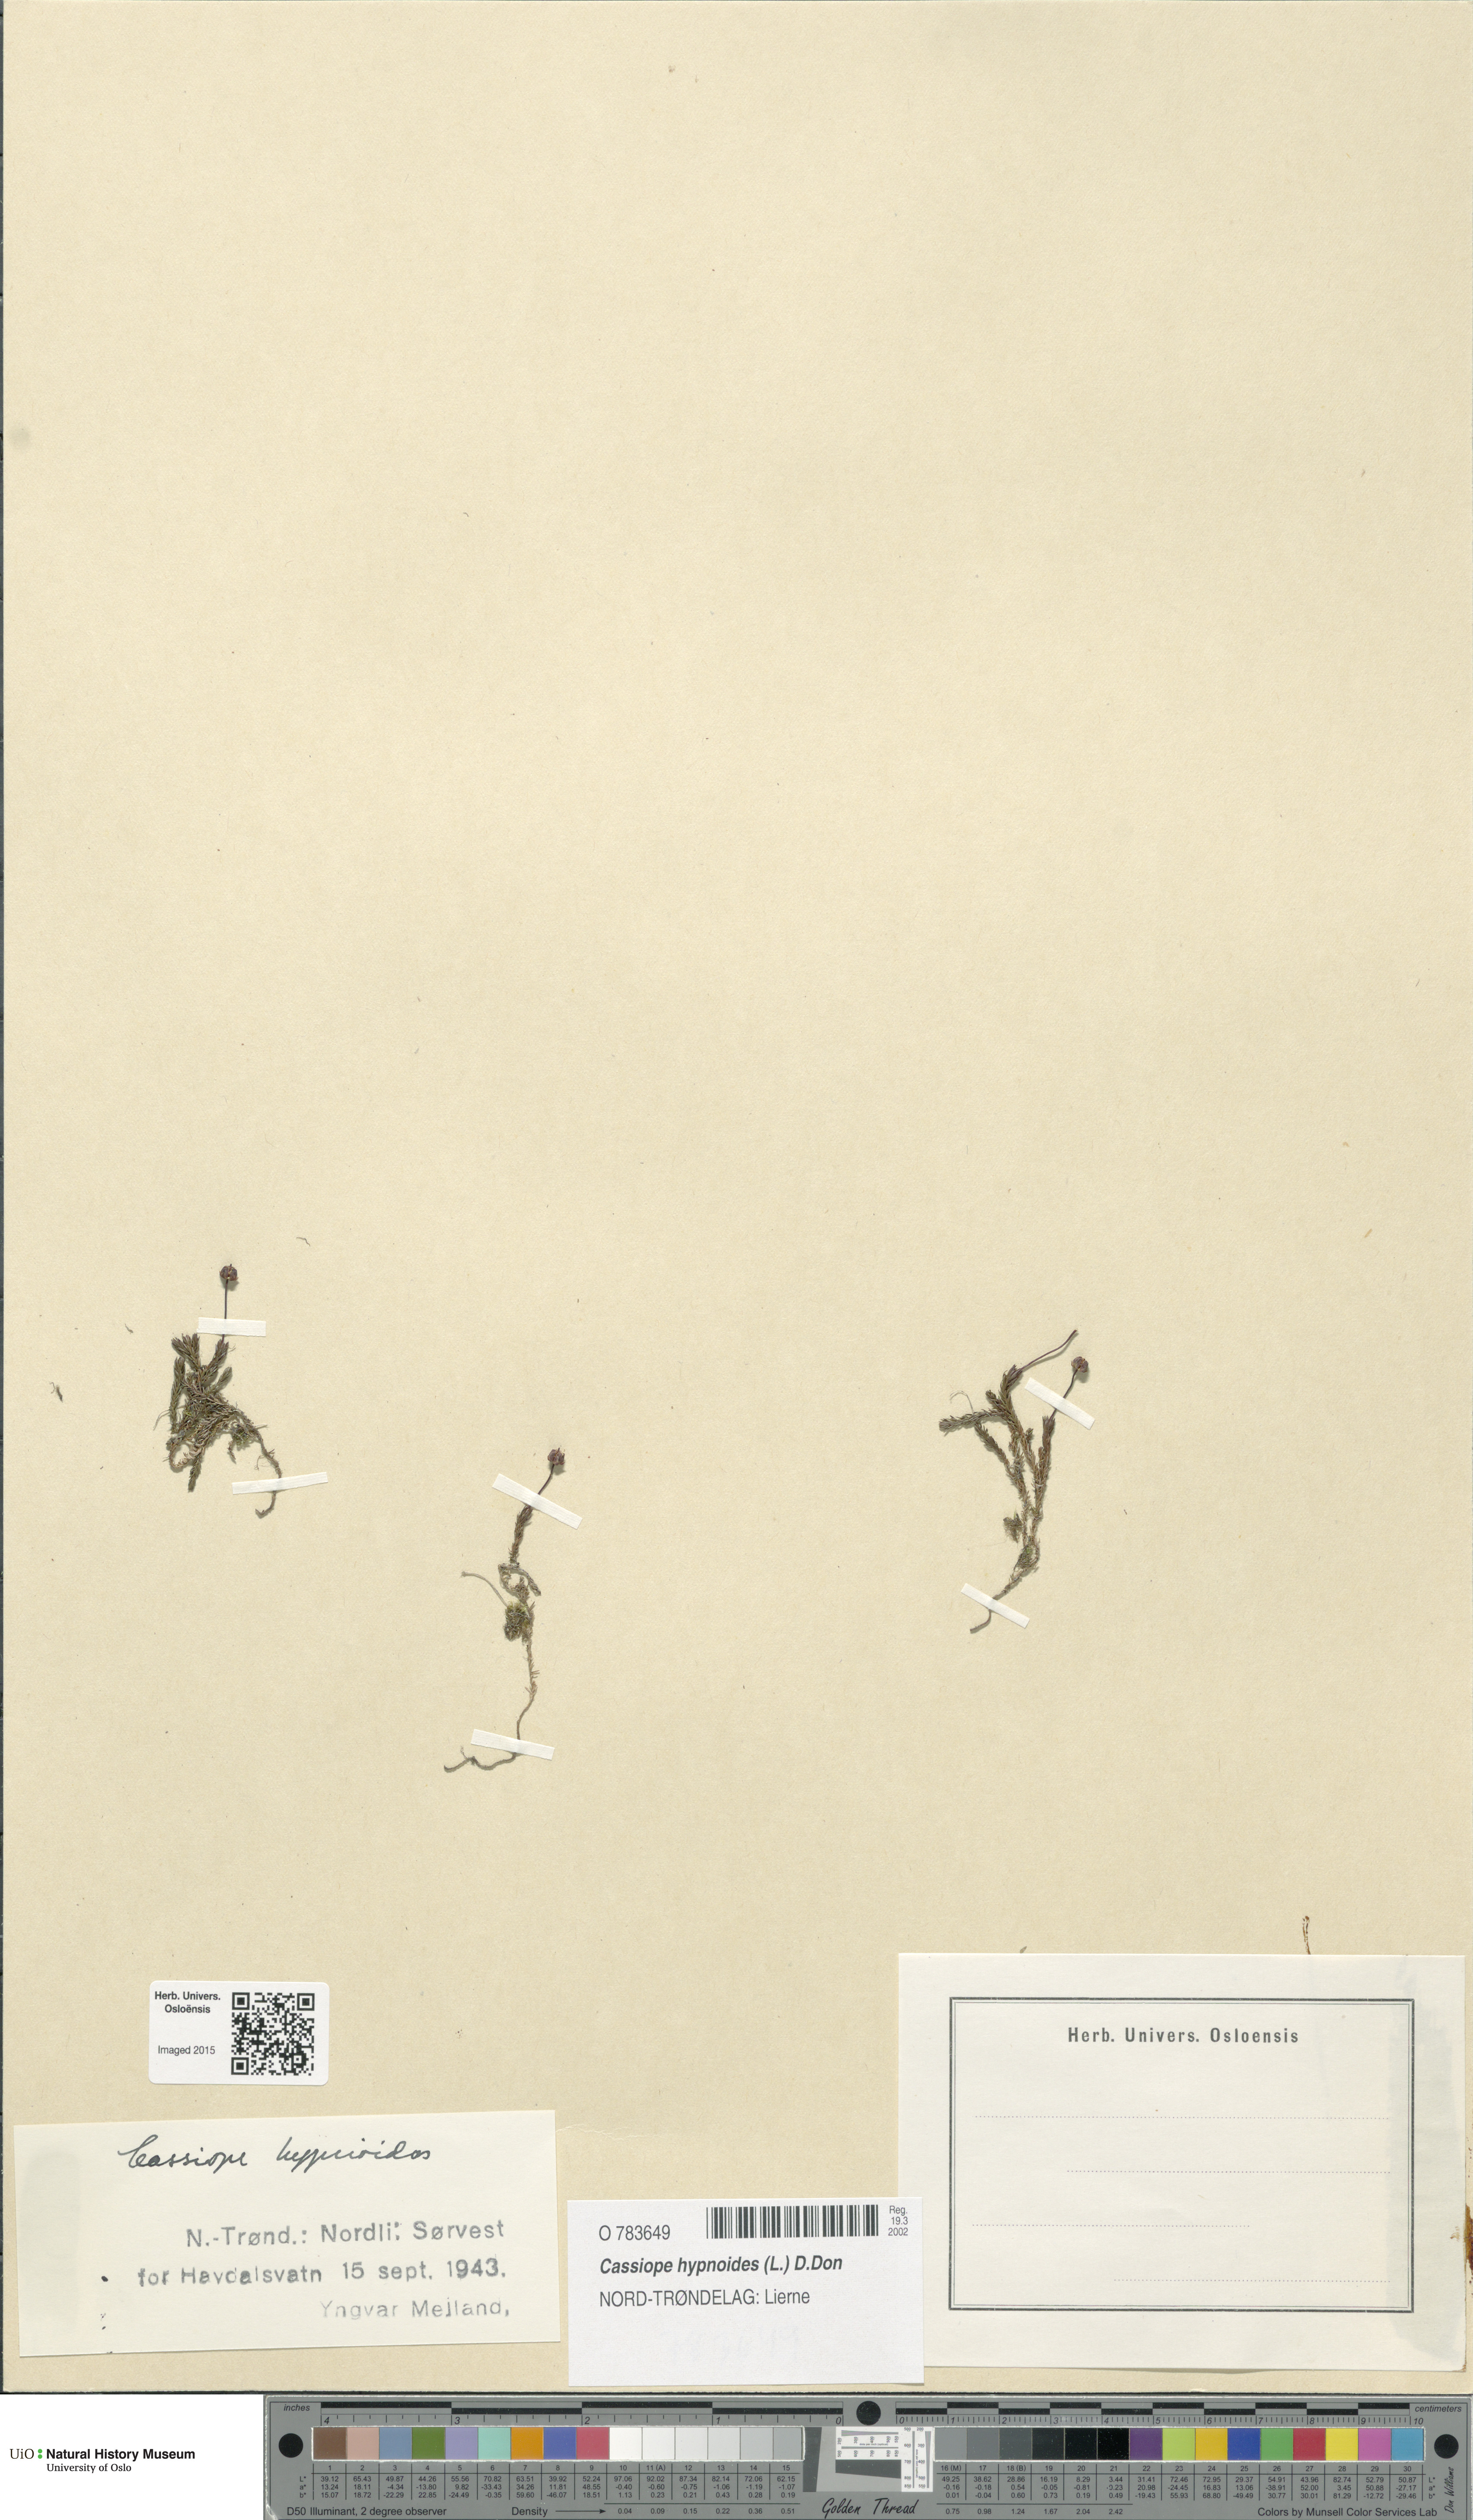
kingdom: Plantae
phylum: Tracheophyta
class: Magnoliopsida
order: Ericales
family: Ericaceae
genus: Harrimanella
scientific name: Harrimanella hypnoides
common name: Moss bell heather
